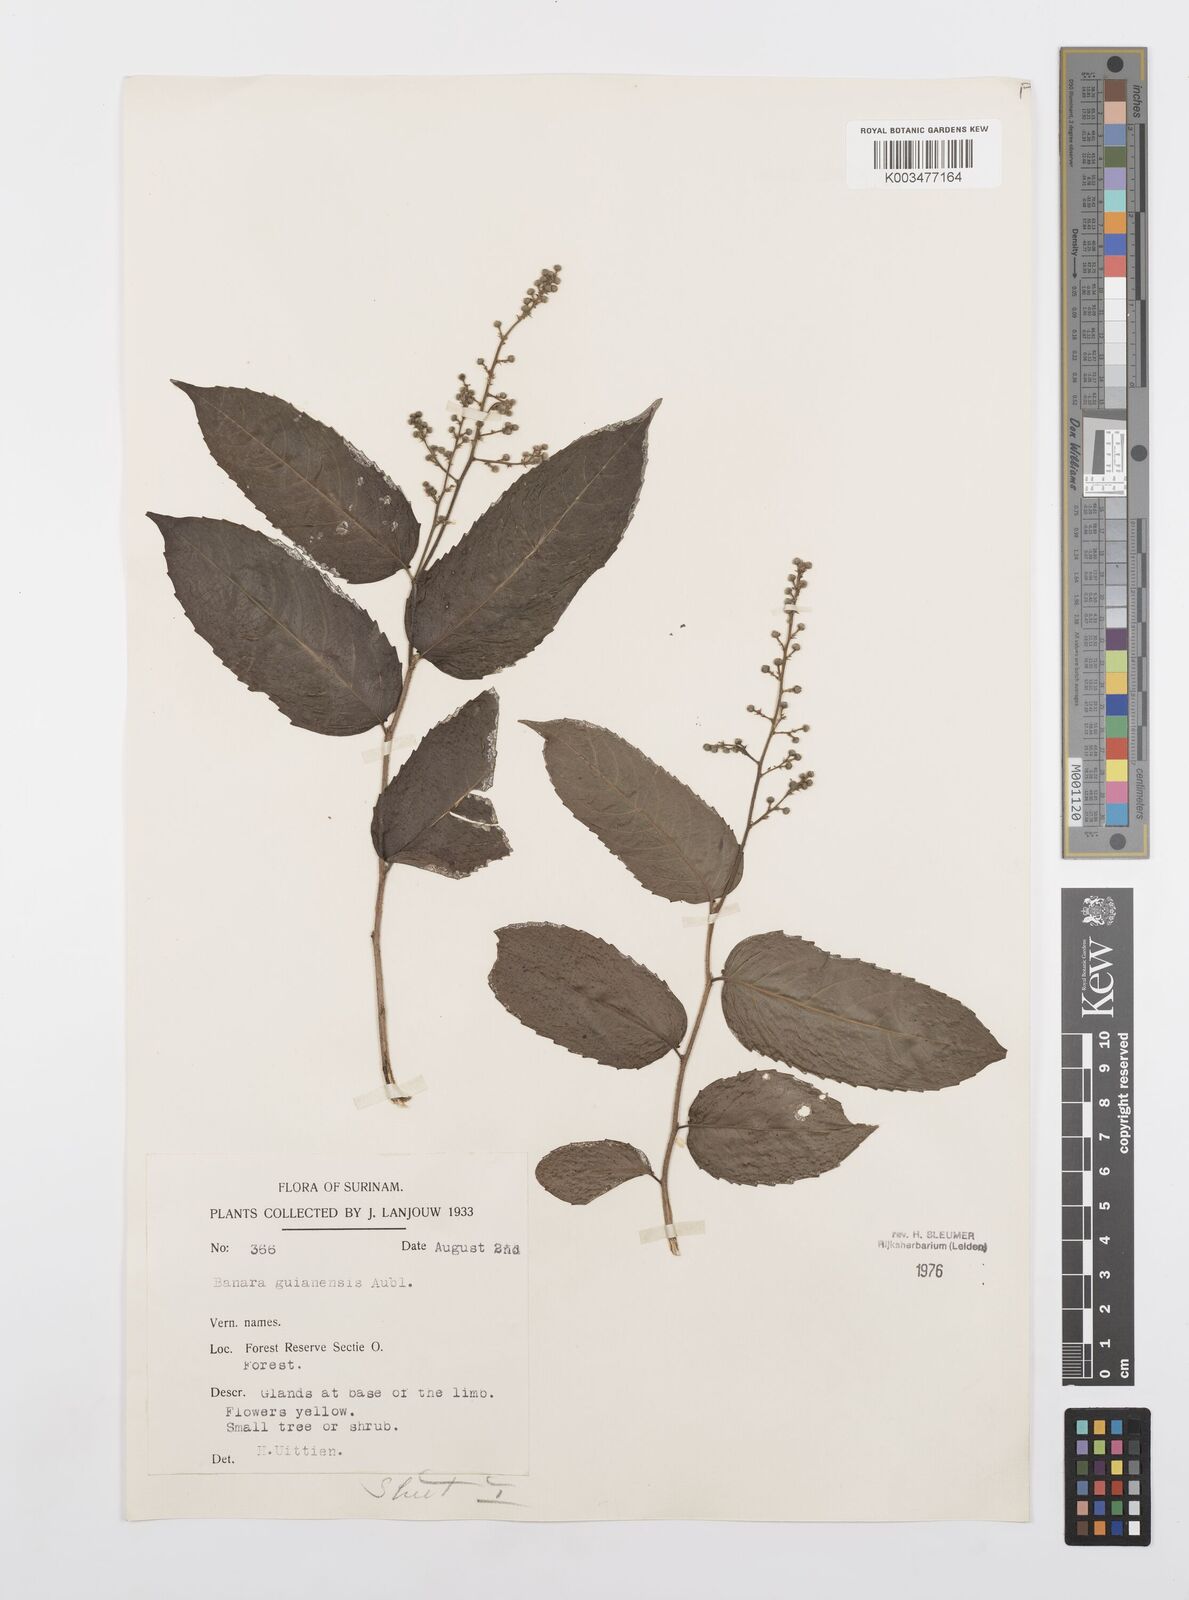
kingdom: Plantae
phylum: Tracheophyta
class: Magnoliopsida
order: Malpighiales
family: Salicaceae
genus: Banara
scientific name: Banara guianensis
